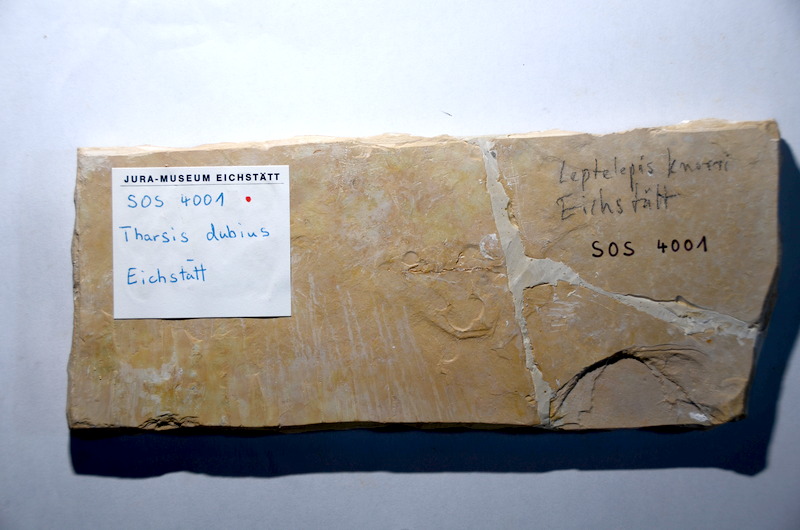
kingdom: Animalia
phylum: Chordata
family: Ascalaboidae
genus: Tharsis
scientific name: Tharsis dubius
